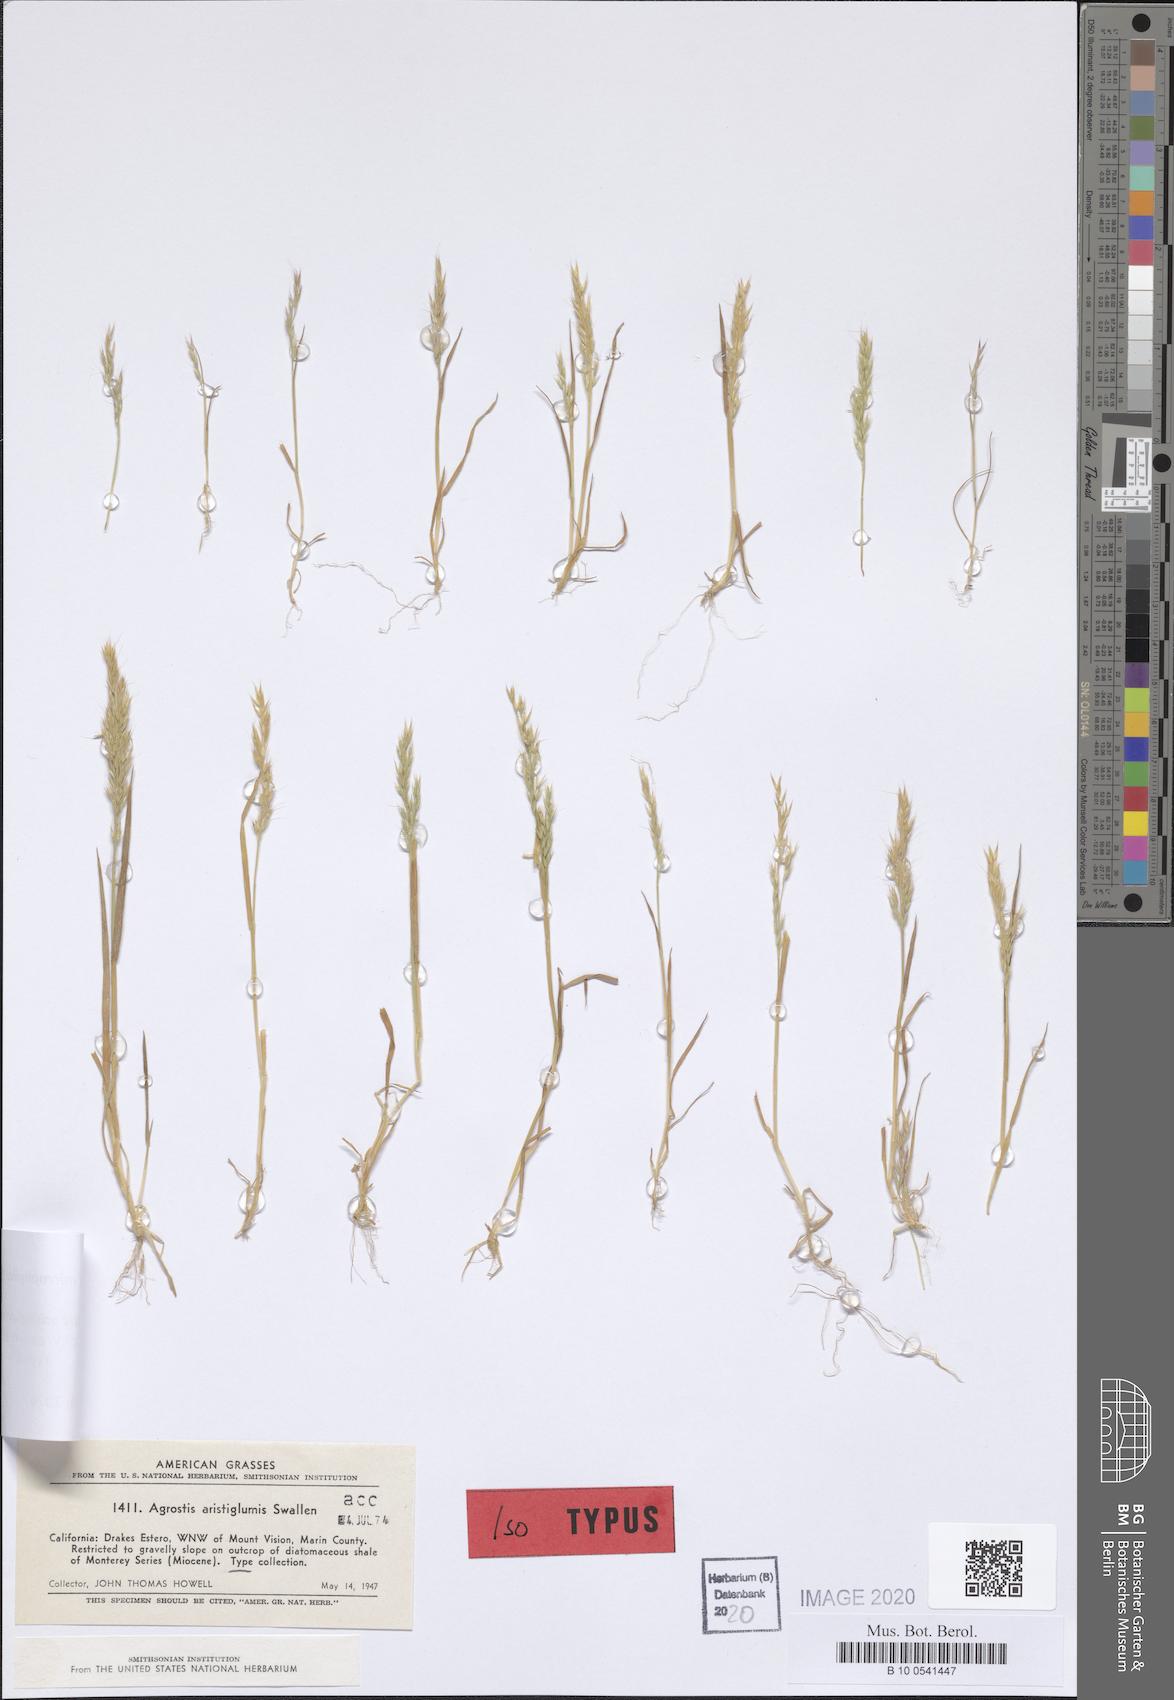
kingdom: Plantae
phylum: Tracheophyta
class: Liliopsida
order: Poales
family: Poaceae
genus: Agrostis
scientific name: Agrostis microphylla
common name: Small-leaf bent
